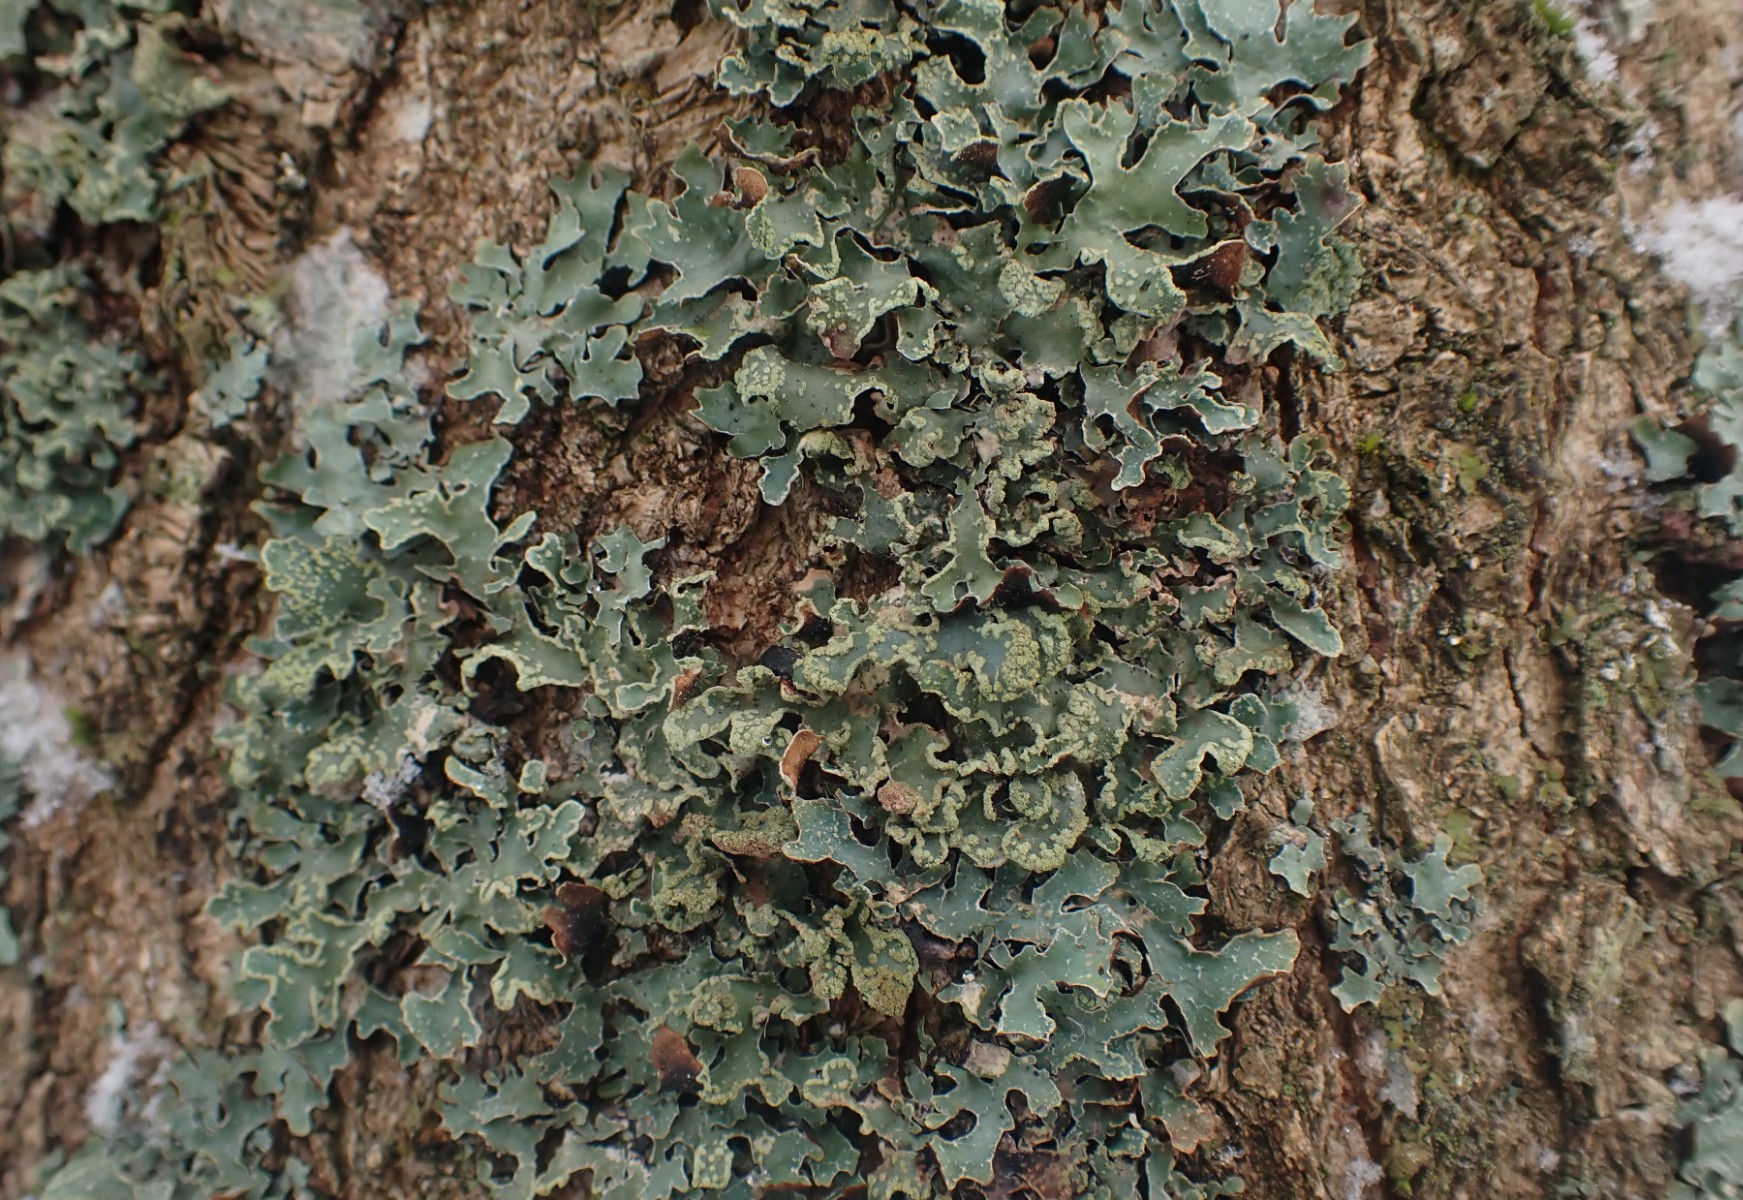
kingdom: Fungi
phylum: Ascomycota
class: Lecanoromycetes
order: Lecanorales
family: Parmeliaceae
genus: Parmelia
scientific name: Parmelia sulcata
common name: rynket skållav
